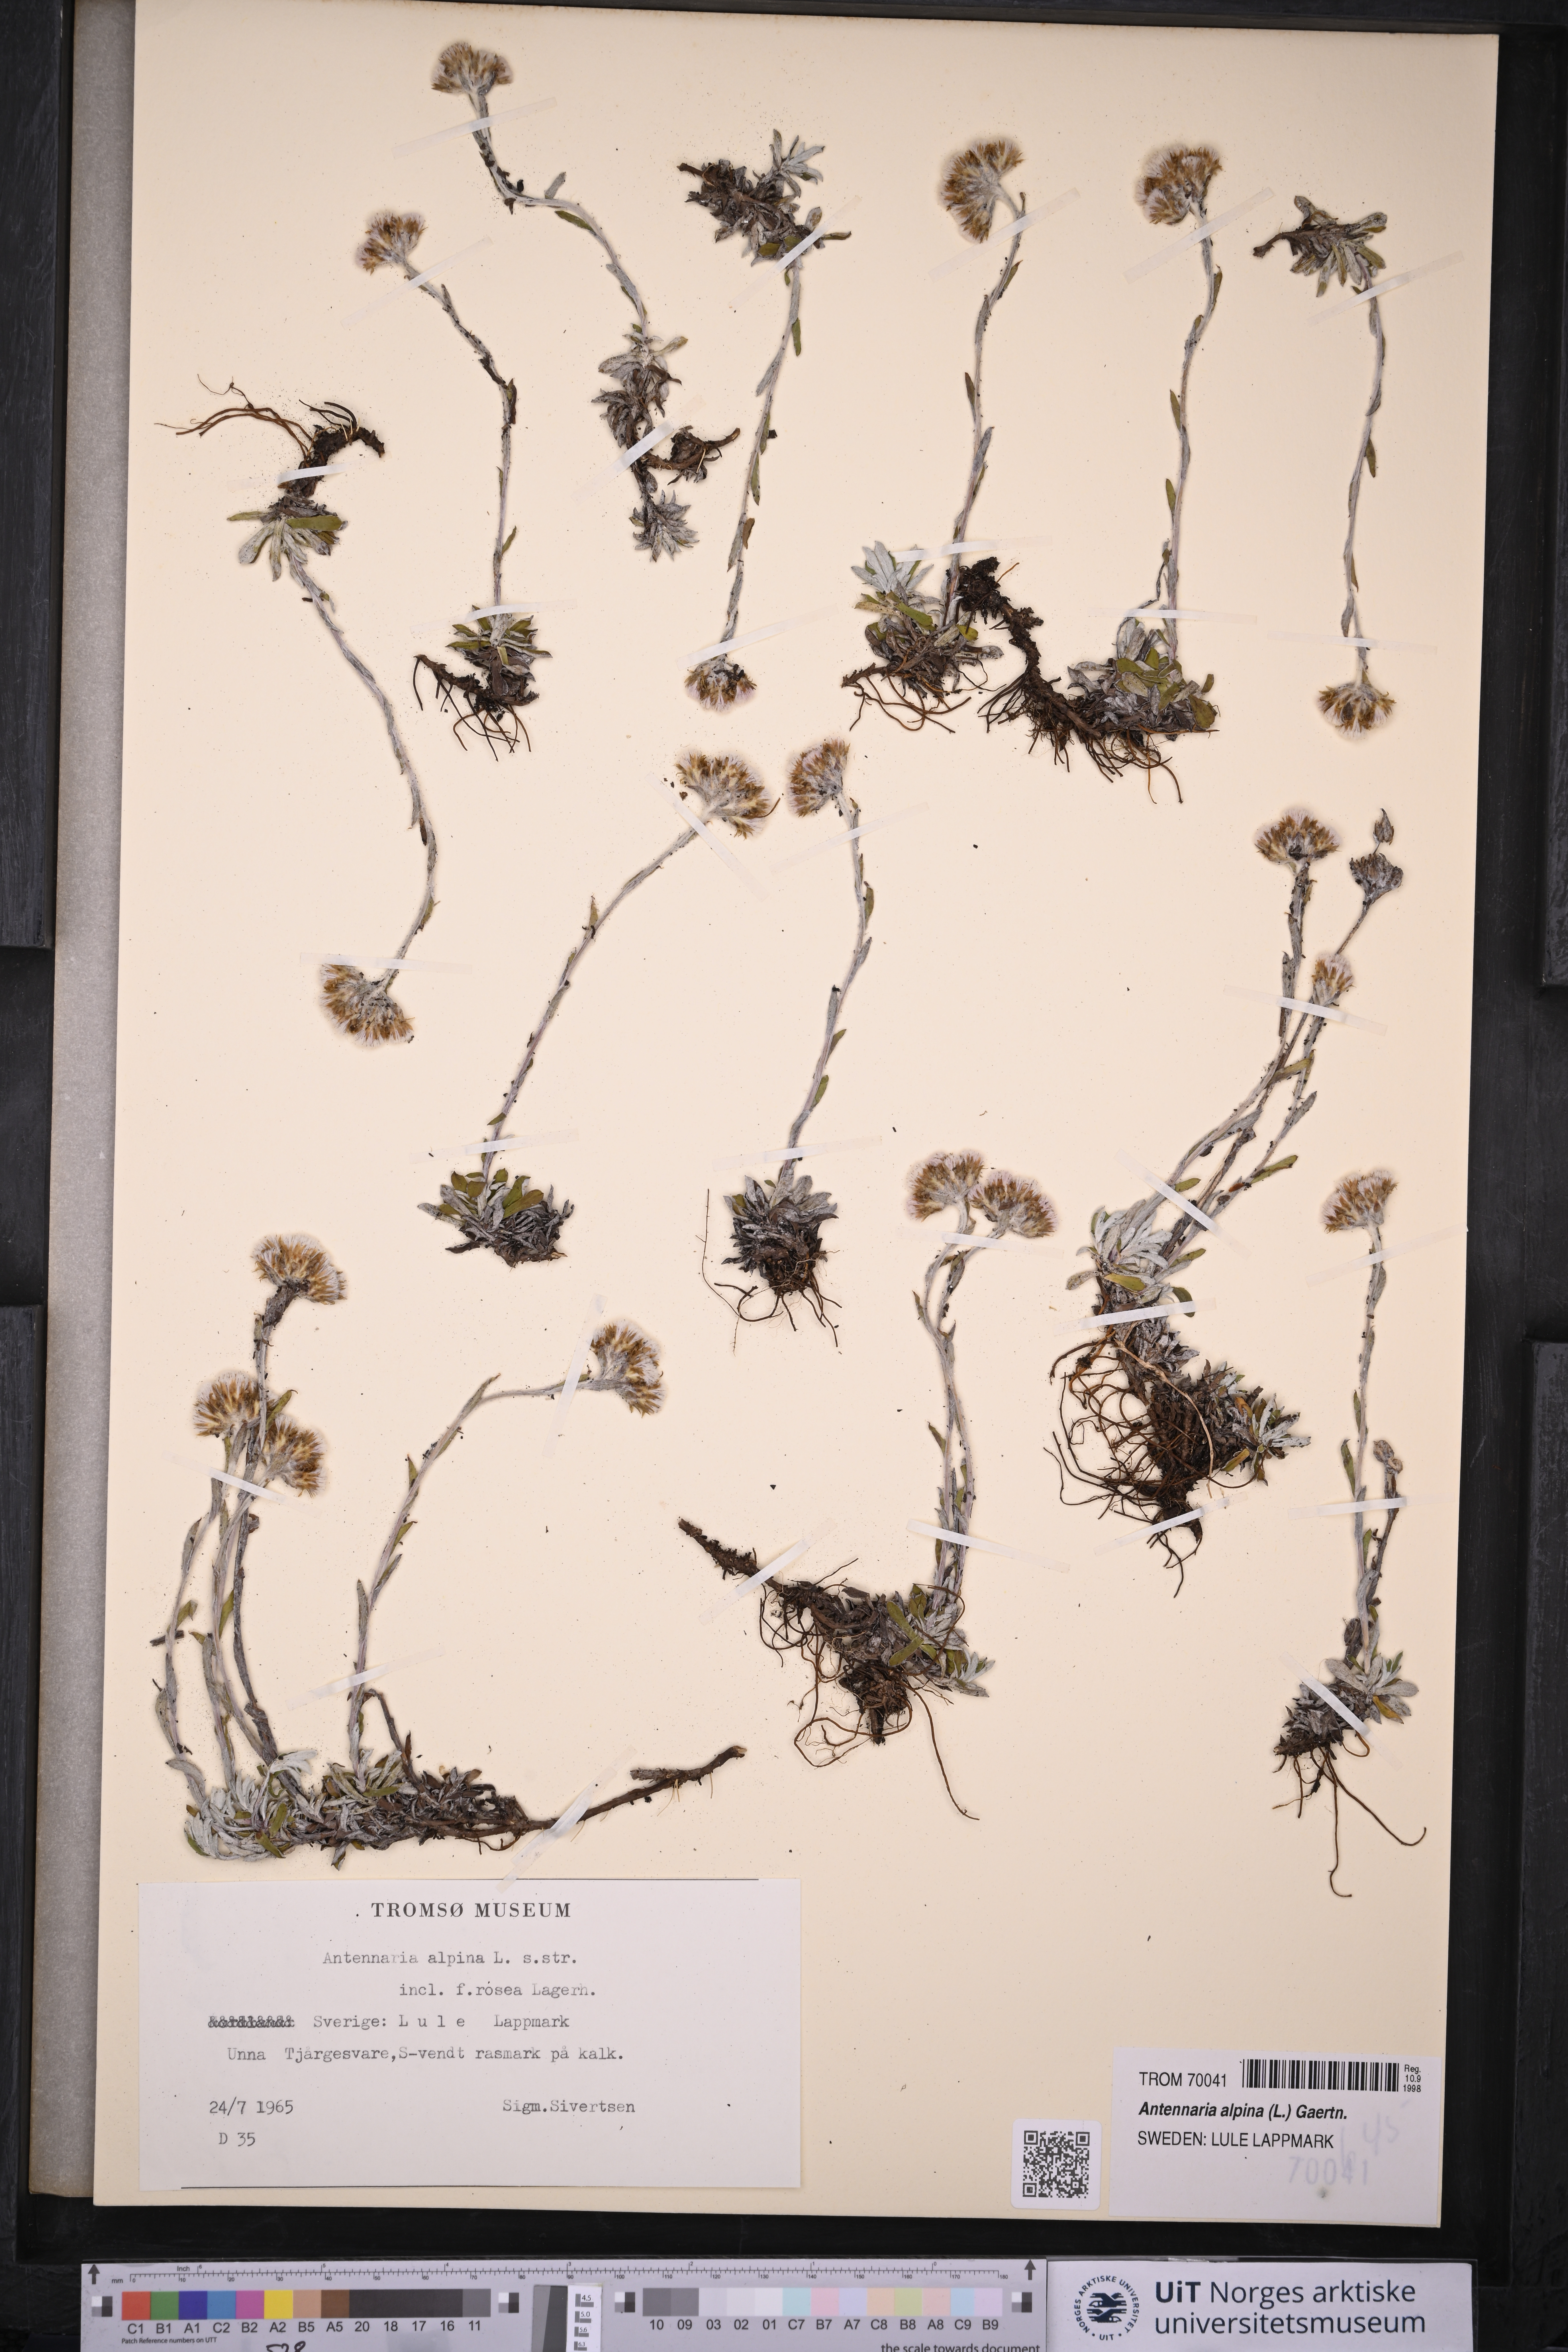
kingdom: Plantae
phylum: Tracheophyta
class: Magnoliopsida
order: Asterales
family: Asteraceae
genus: Antennaria
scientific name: Antennaria alpina
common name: Alpine pussytoes
